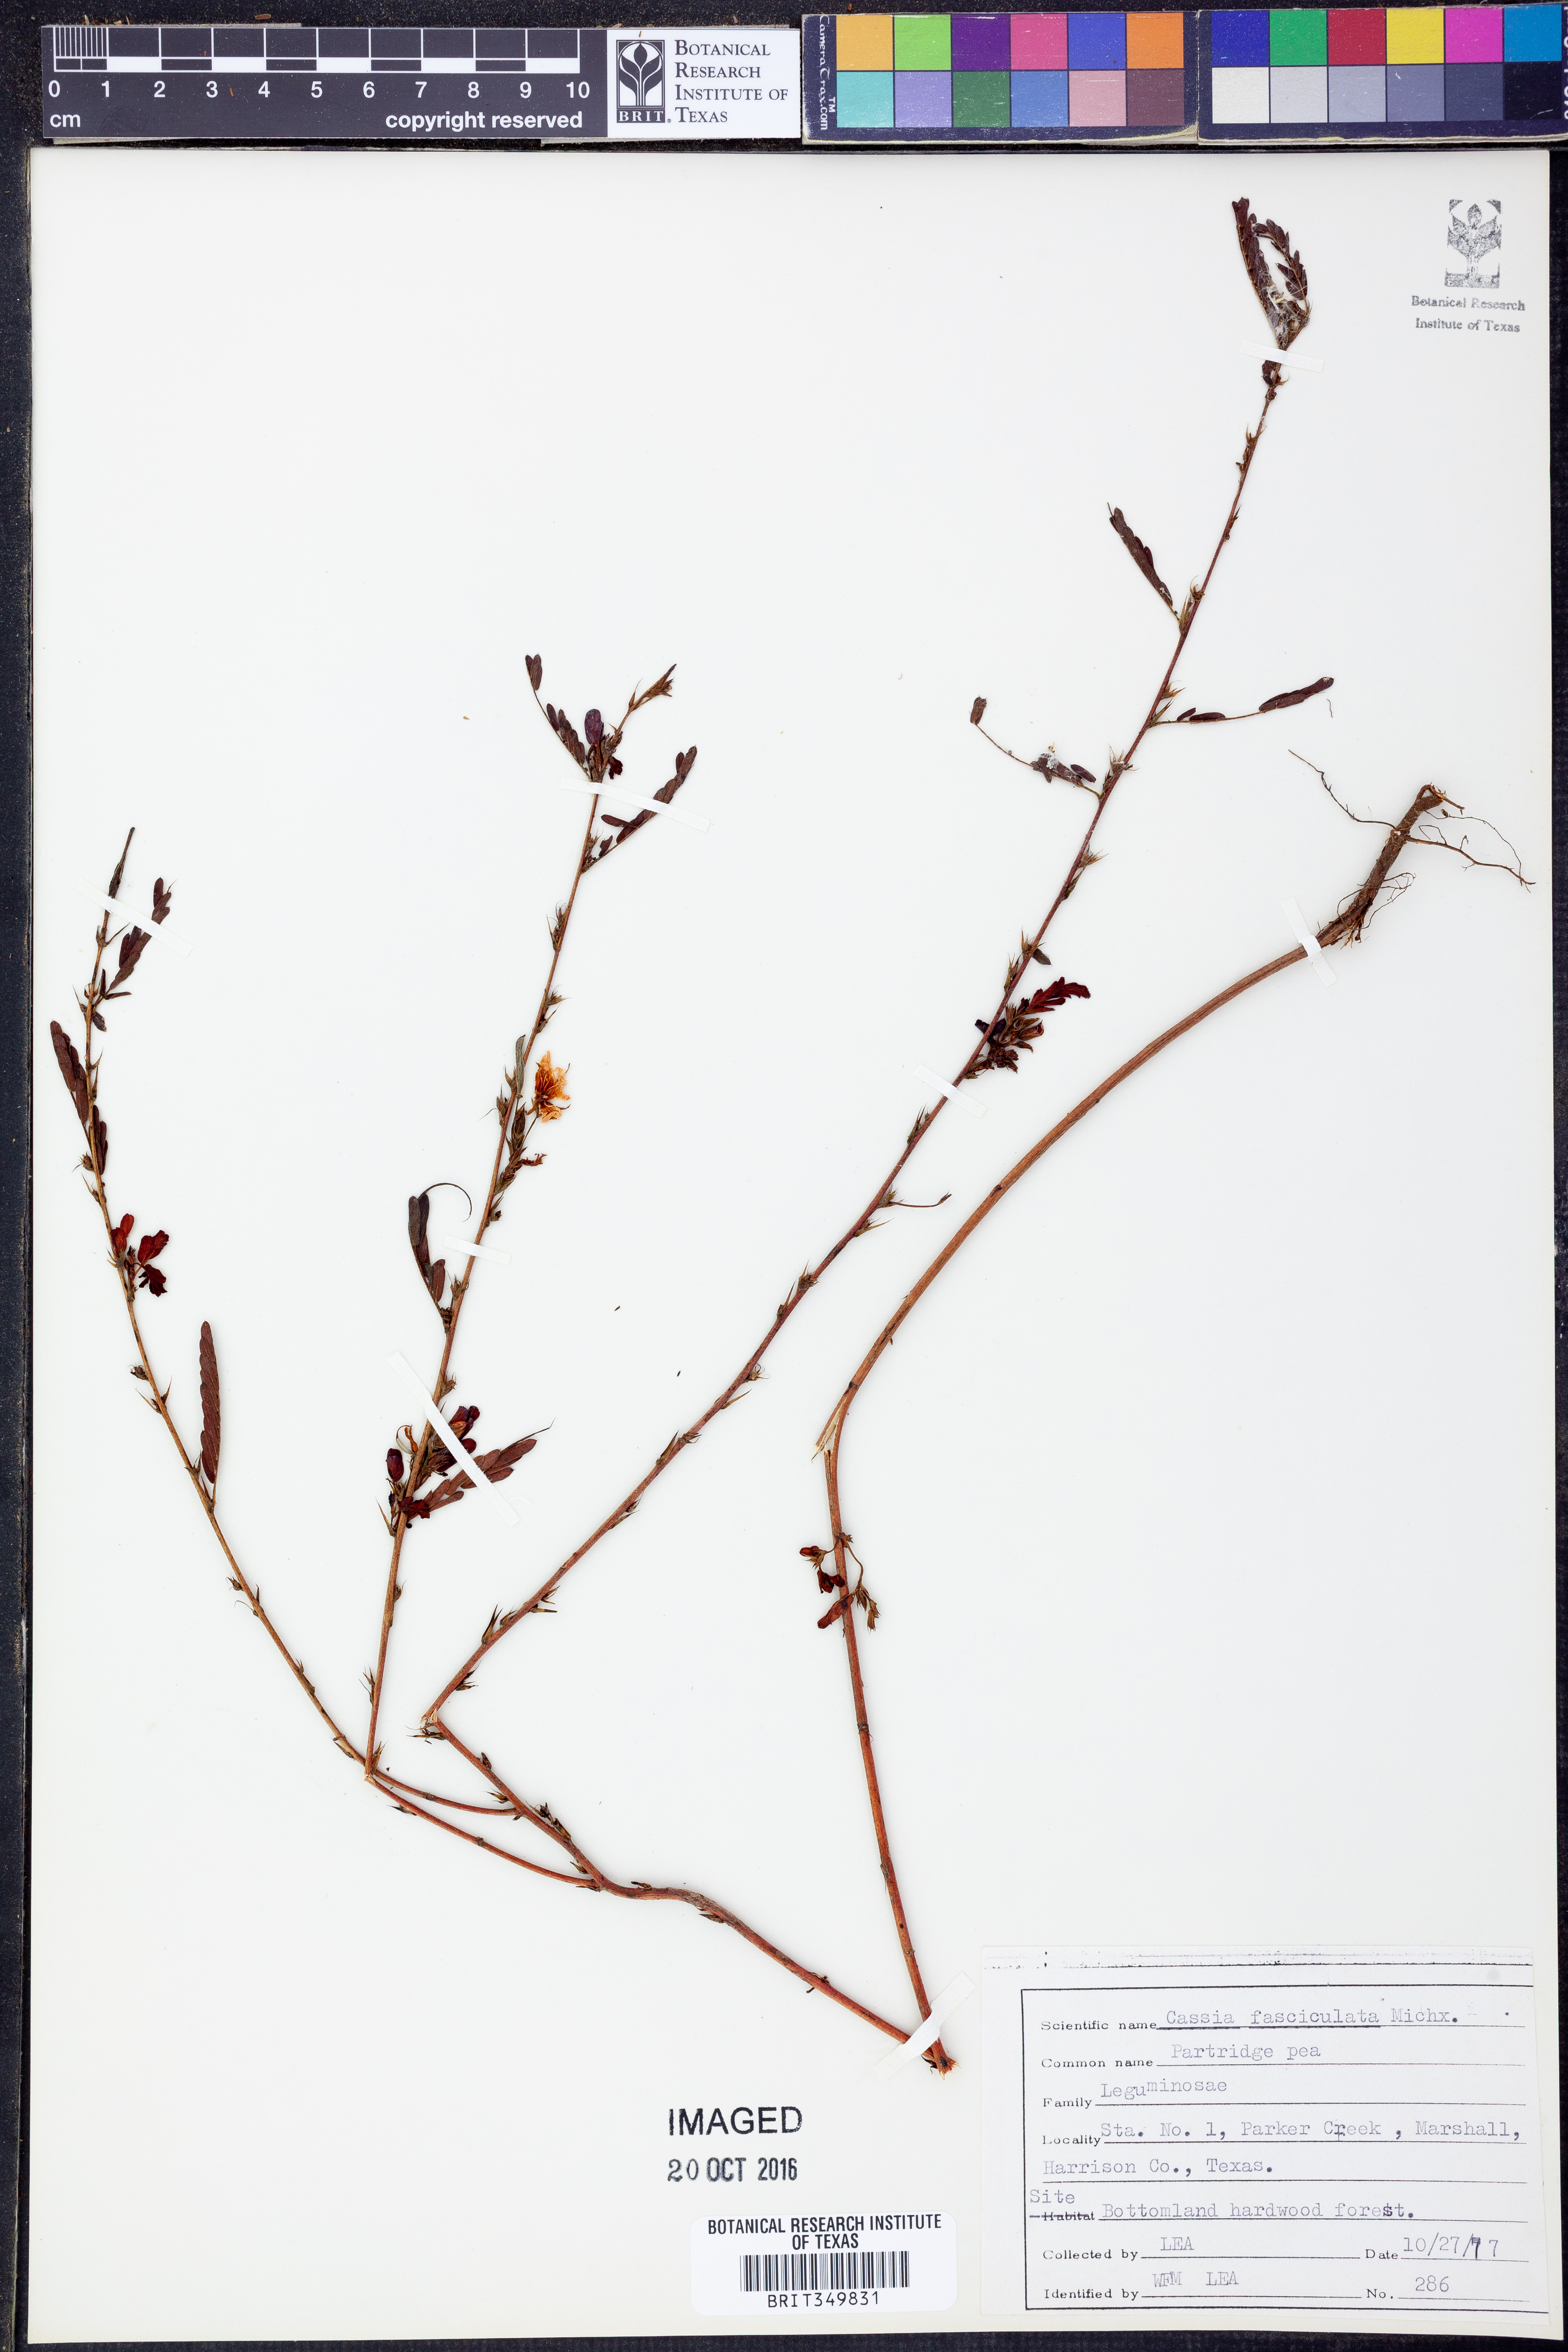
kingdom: Plantae
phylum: Tracheophyta
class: Magnoliopsida
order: Fabales
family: Fabaceae
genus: Chamaecrista
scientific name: Chamaecrista fasciculata
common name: Golden cassia
